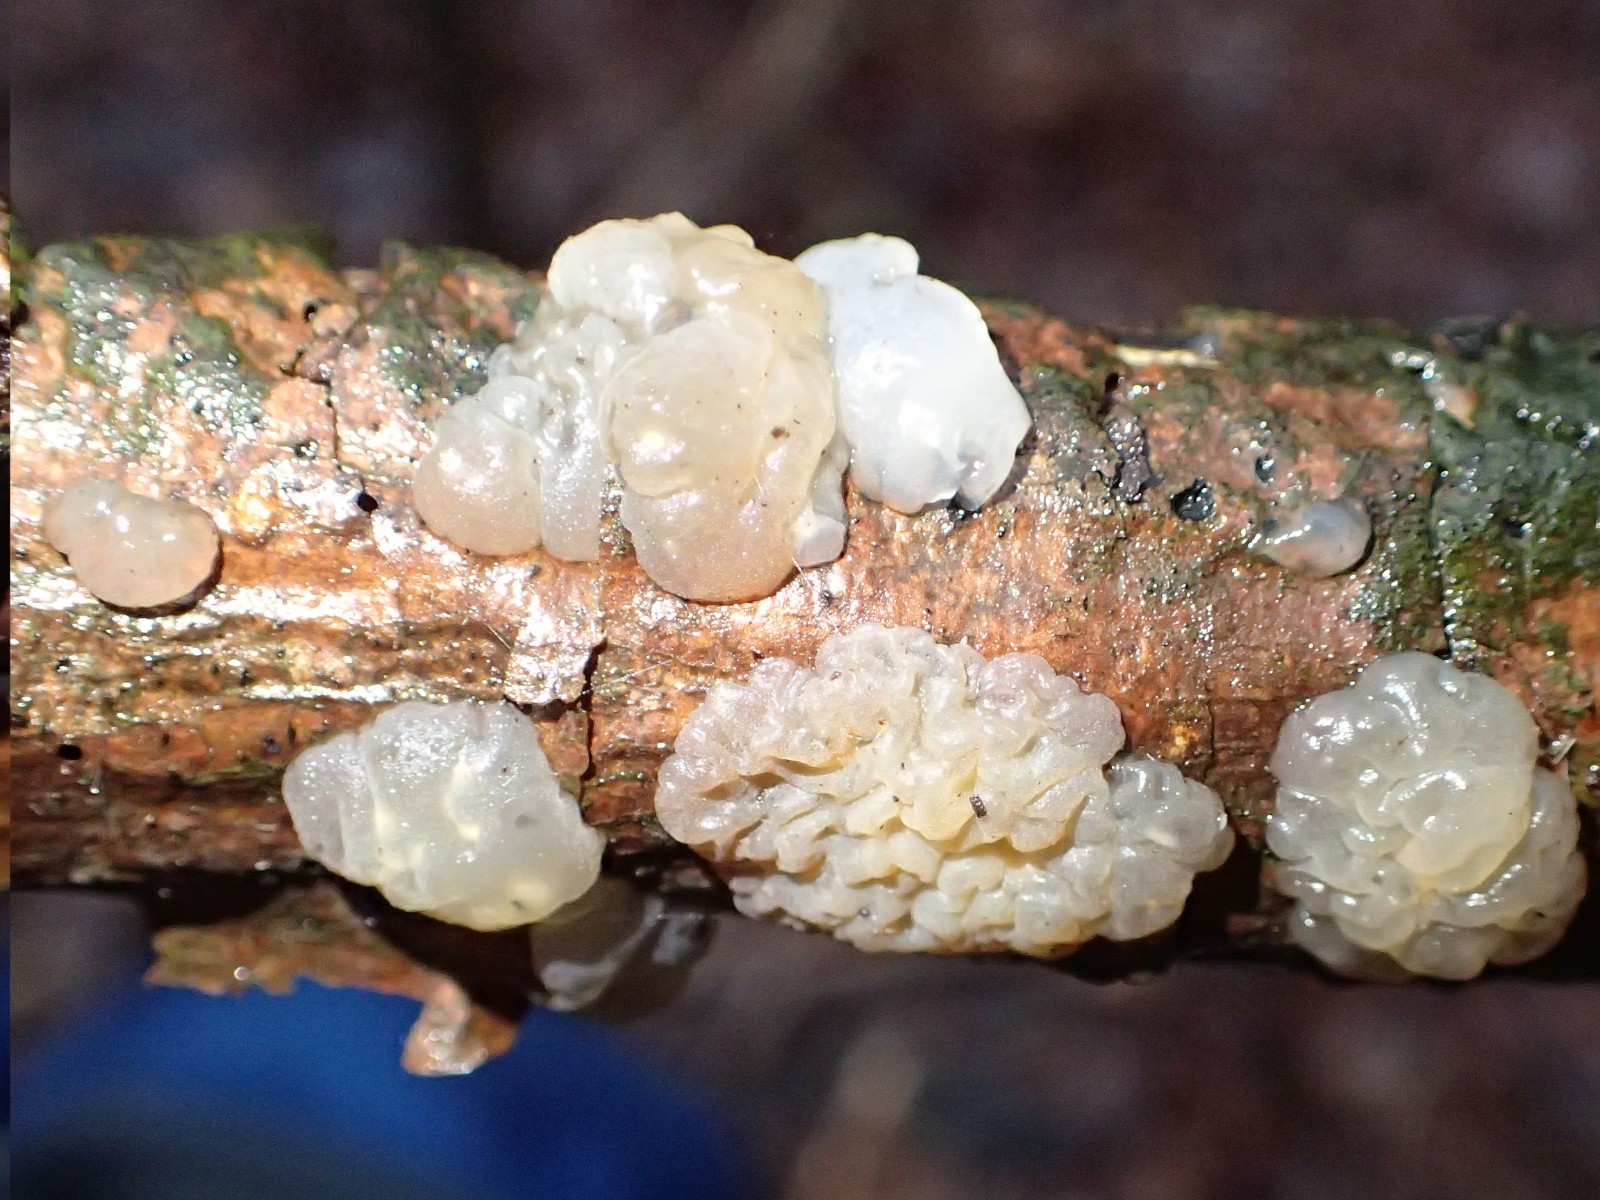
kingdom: Fungi
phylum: Basidiomycota
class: Agaricomycetes
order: Auriculariales
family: Auriculariaceae
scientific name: Auriculariaceae
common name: judasørefamilien
